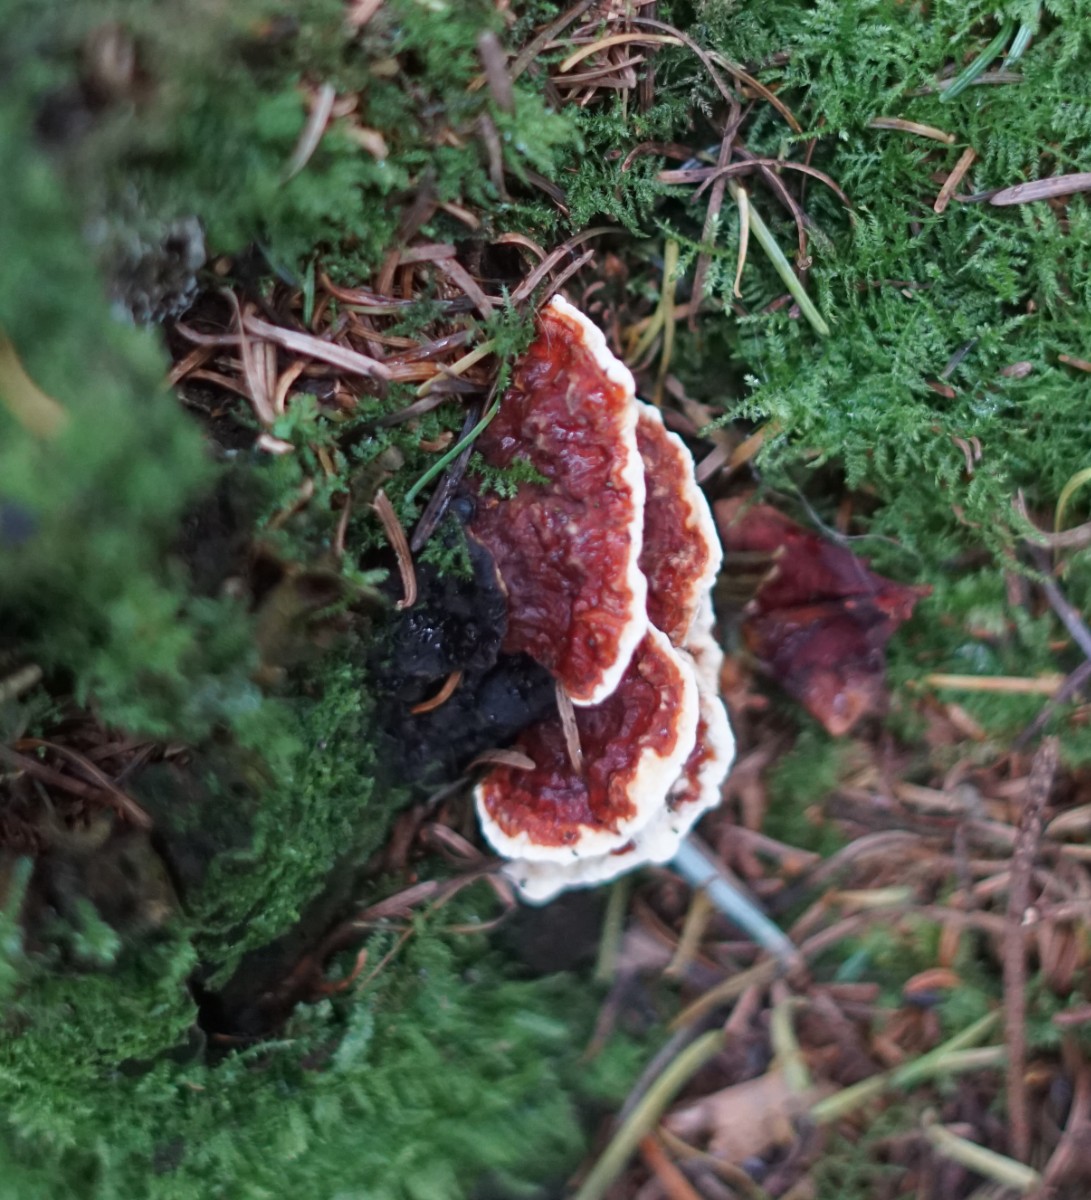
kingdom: Fungi
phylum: Basidiomycota
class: Agaricomycetes
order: Russulales
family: Bondarzewiaceae
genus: Heterobasidion
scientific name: Heterobasidion annosum
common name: almindelig rodfordærver
